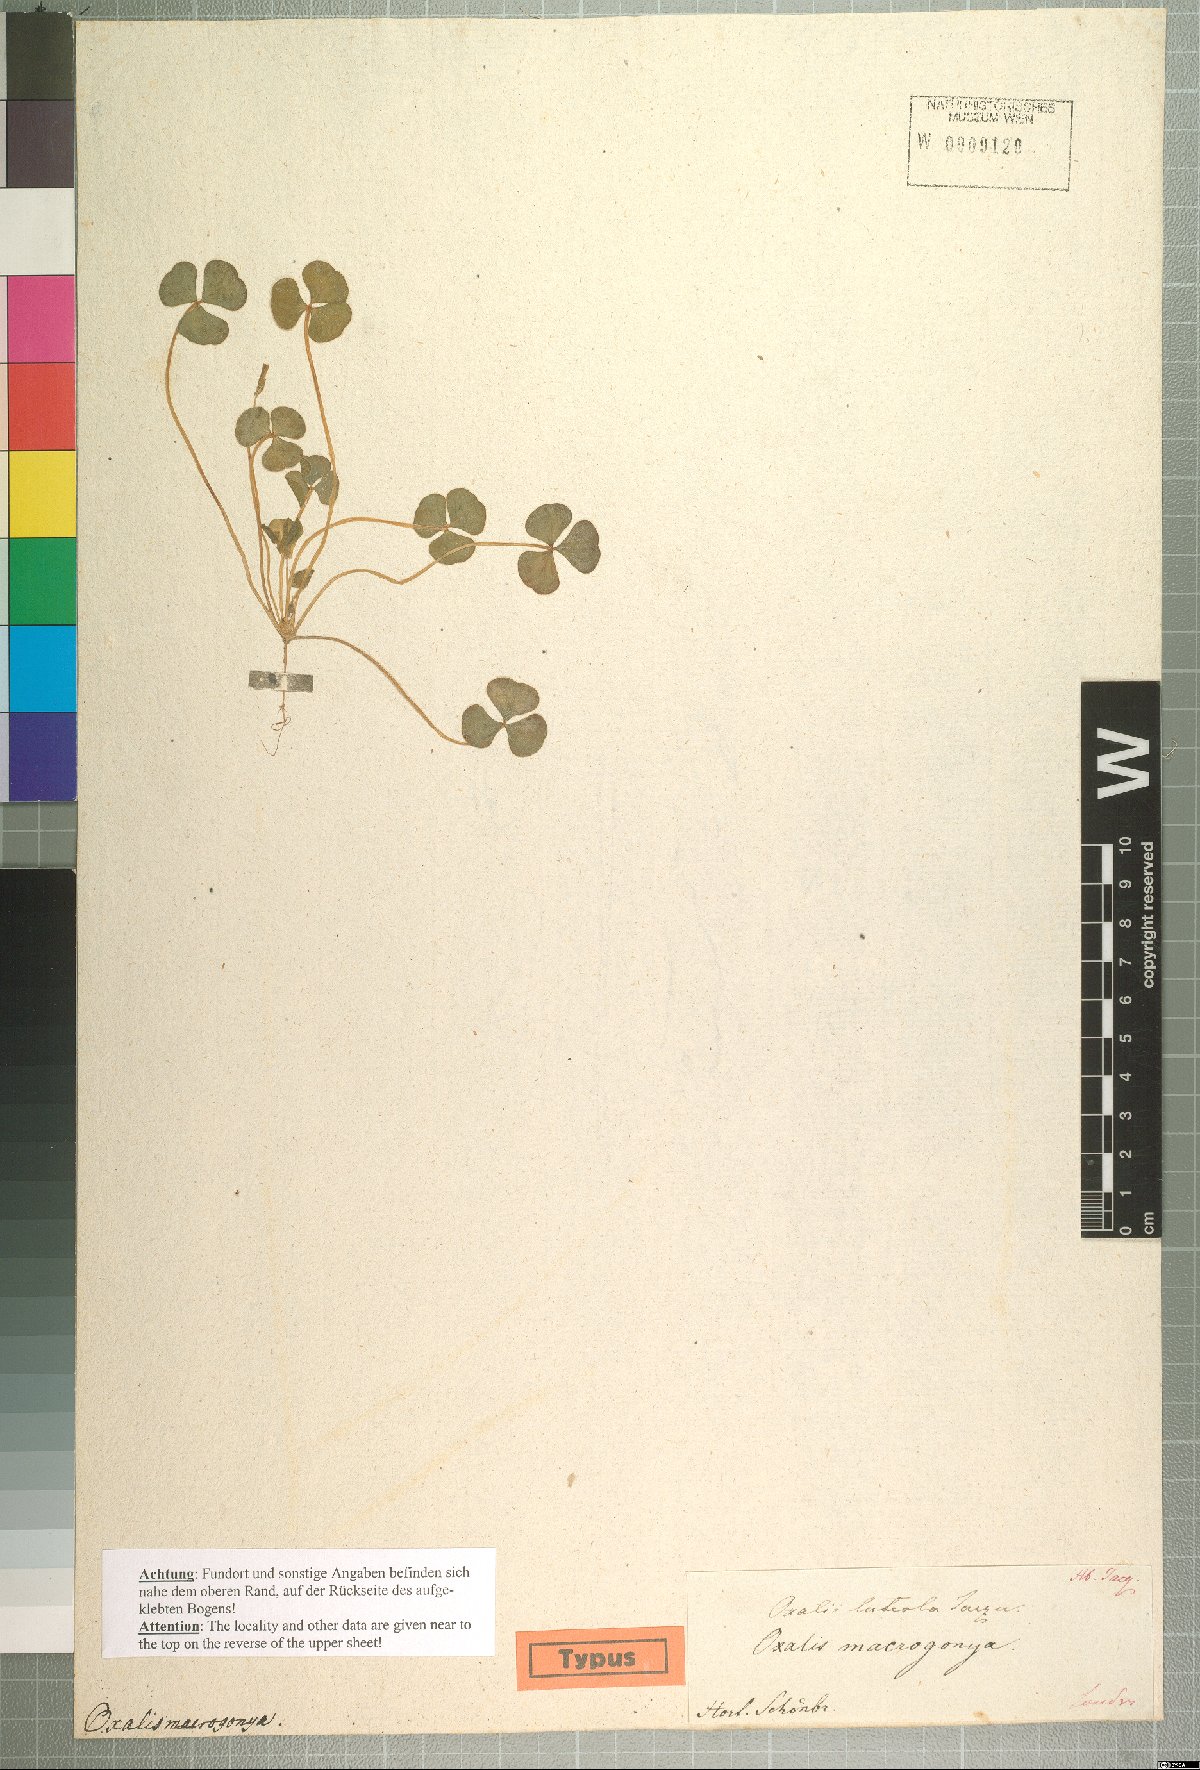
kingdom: Plantae
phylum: Tracheophyta
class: Magnoliopsida
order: Oxalidales
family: Oxalidaceae
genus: Oxalis
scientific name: Oxalis luteola
